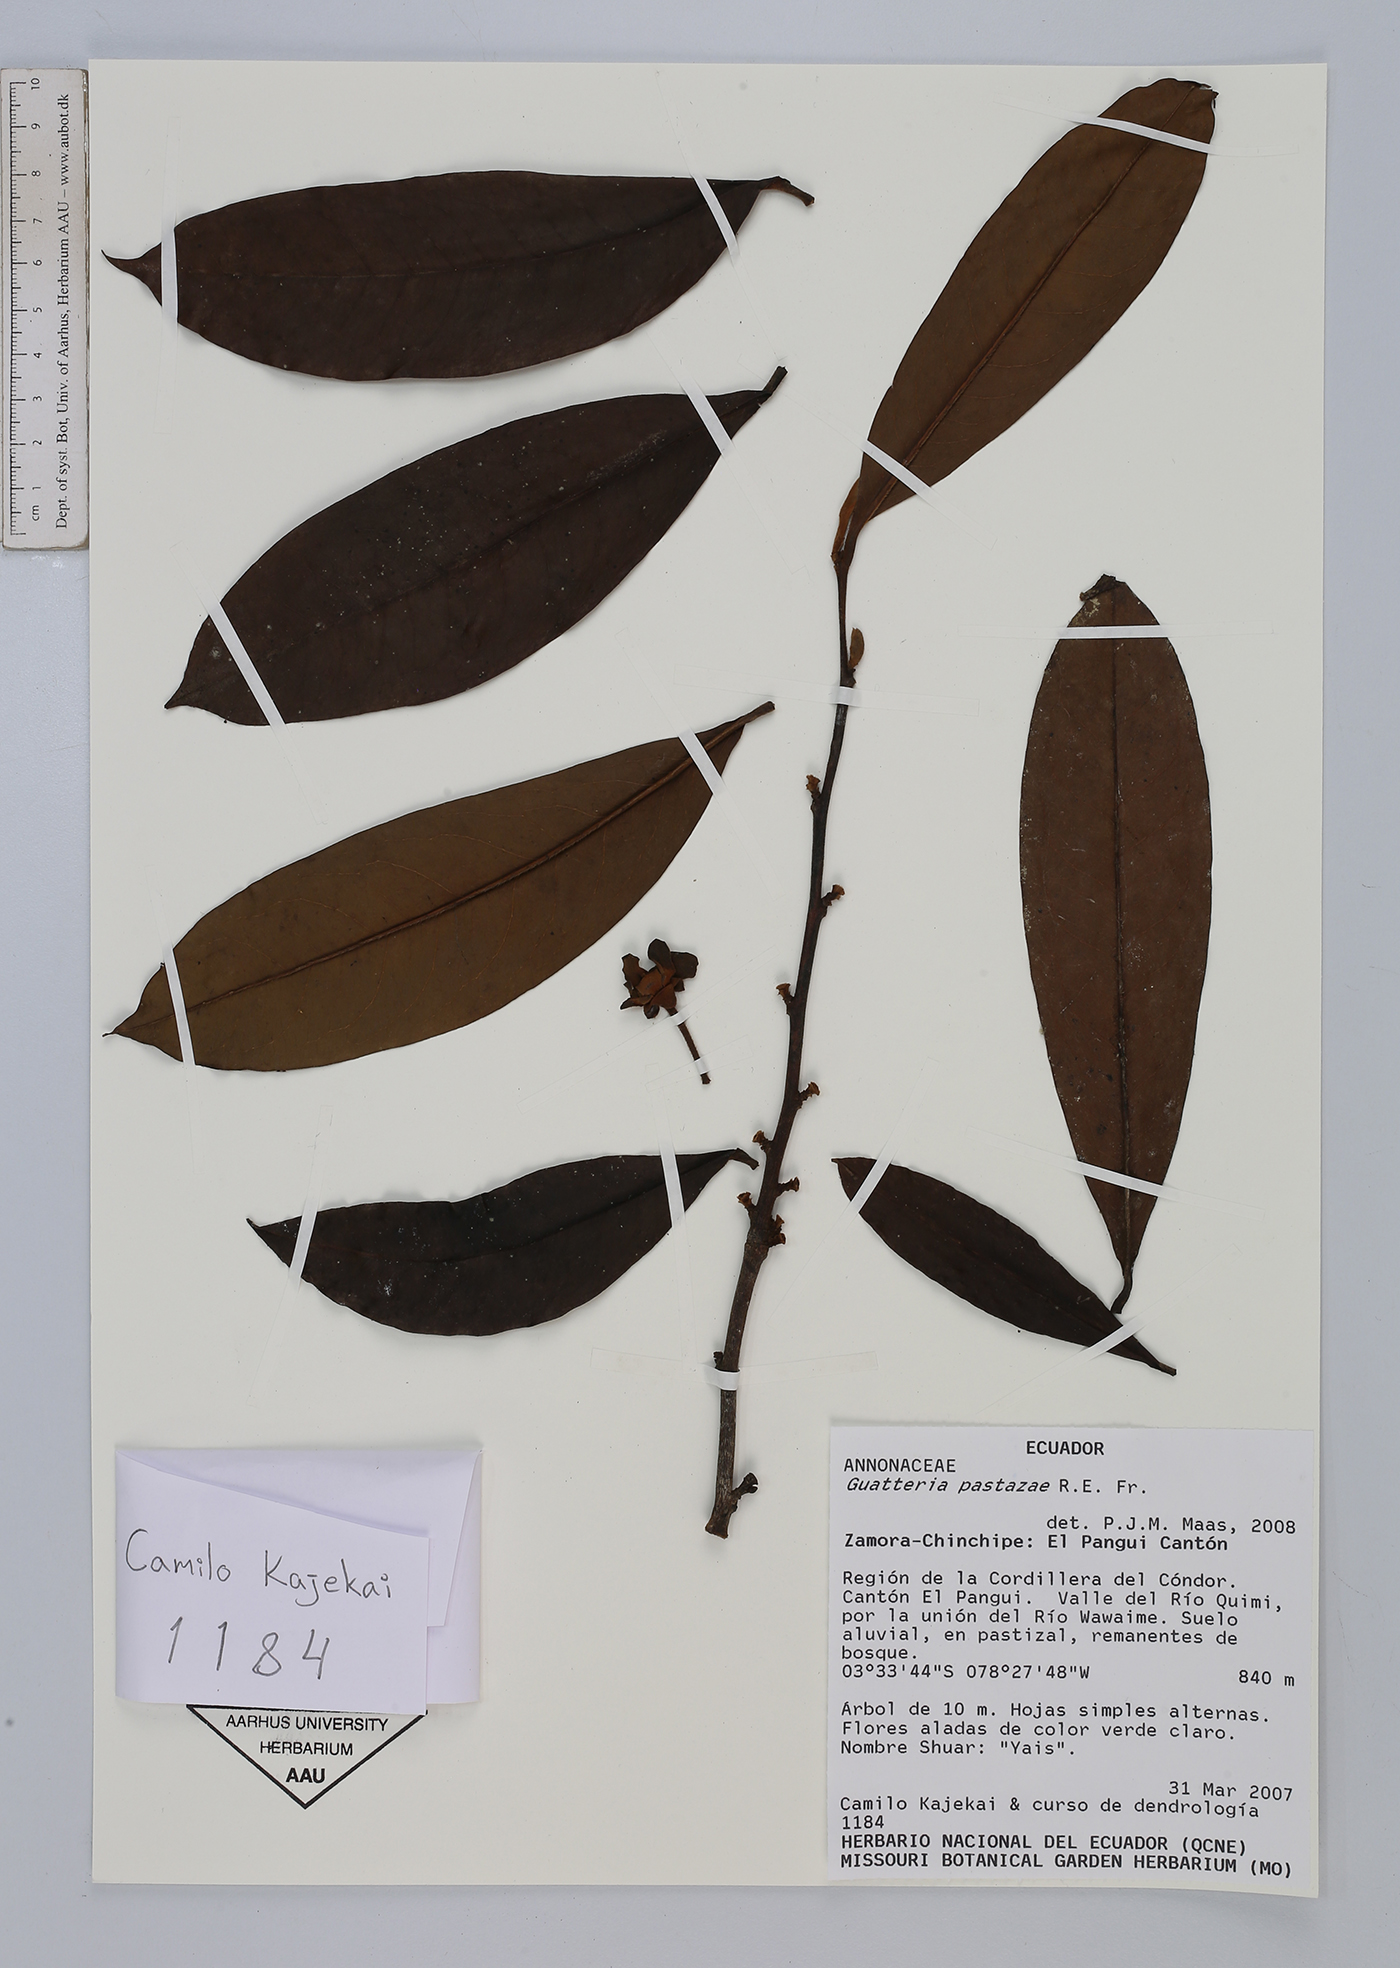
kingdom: Plantae
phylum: Tracheophyta
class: Magnoliopsida
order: Magnoliales
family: Annonaceae
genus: Guatteria
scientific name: Guatteria pastazae
